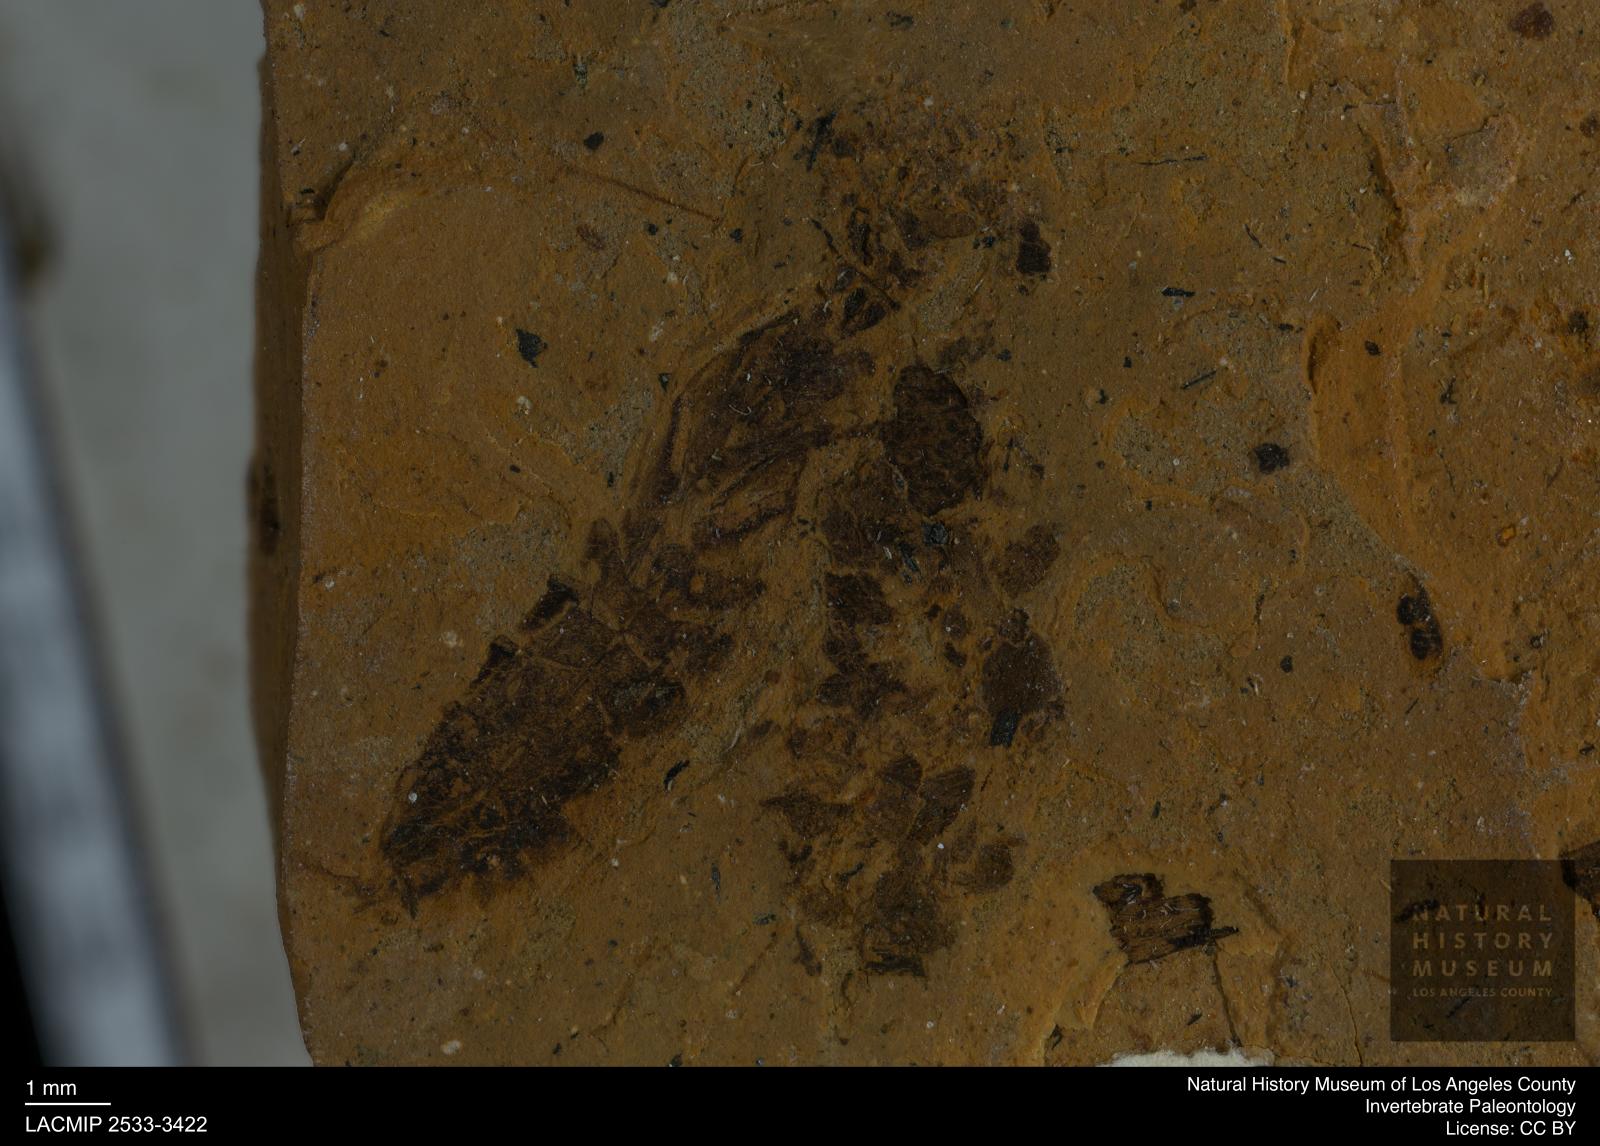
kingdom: Animalia
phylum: Arthropoda
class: Insecta
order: Hemiptera
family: Notonectidae
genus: Notonecta
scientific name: Notonecta
